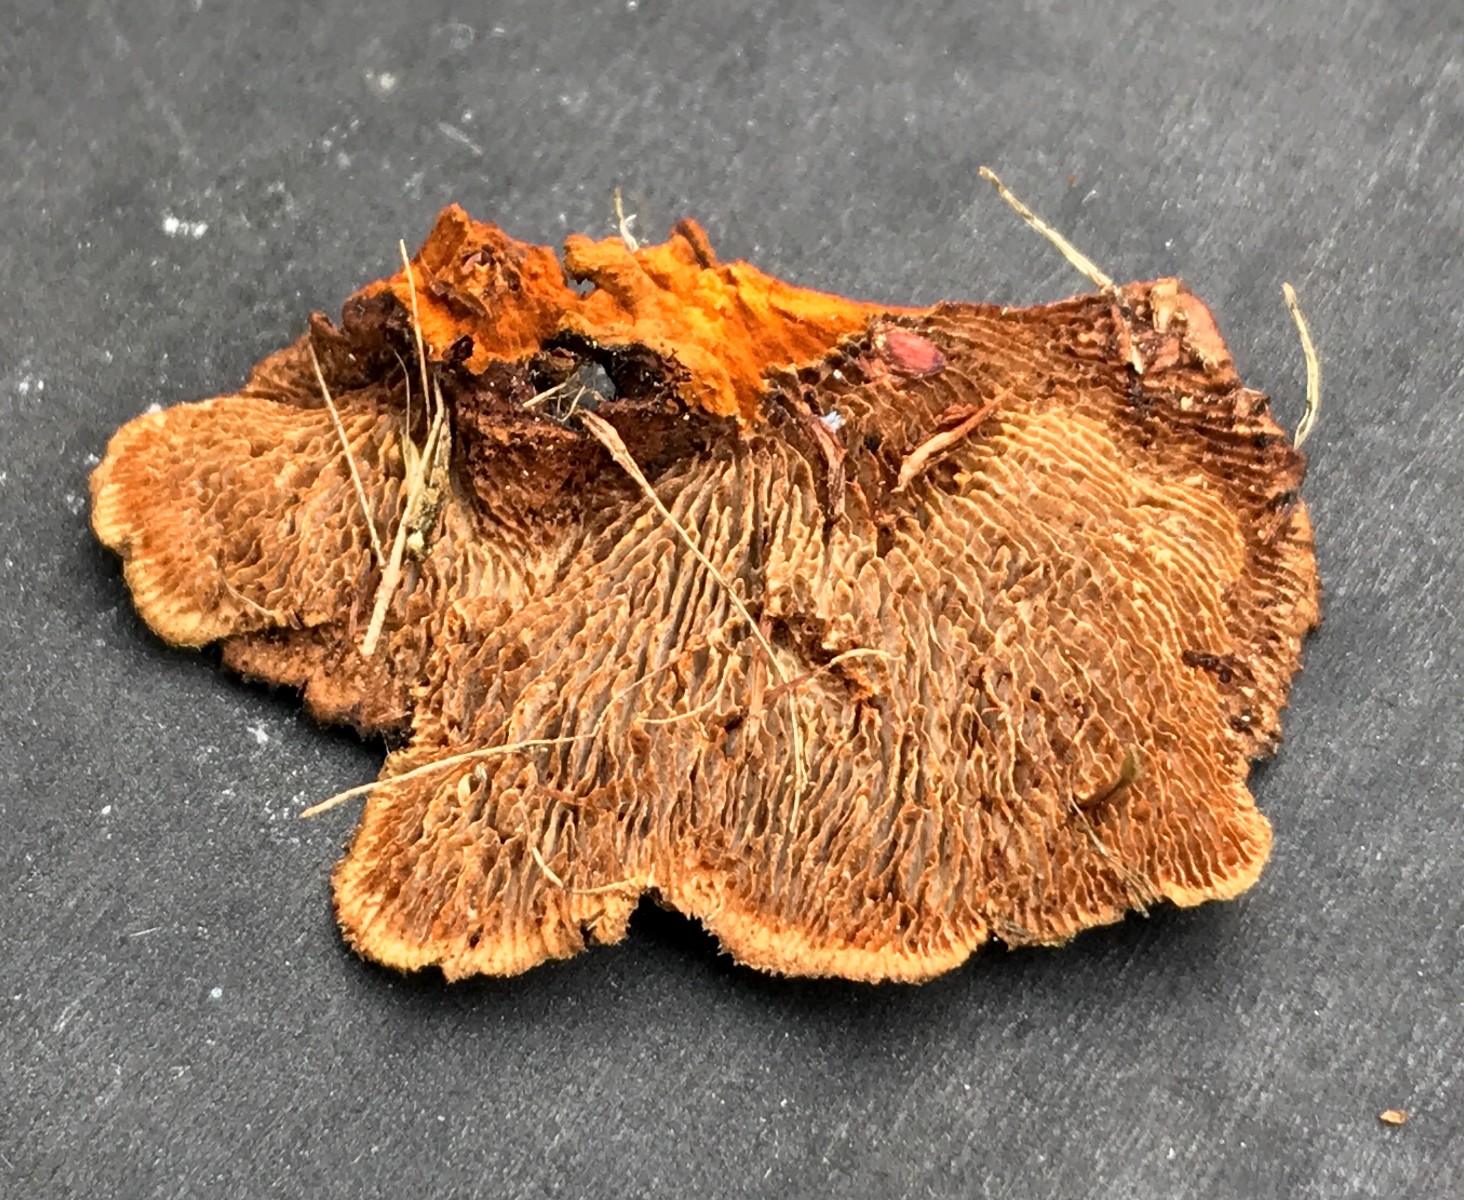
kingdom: Fungi
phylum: Basidiomycota
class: Agaricomycetes
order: Gloeophyllales
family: Gloeophyllaceae
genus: Gloeophyllum
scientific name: Gloeophyllum sepiarium
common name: fyrre-korkhat
